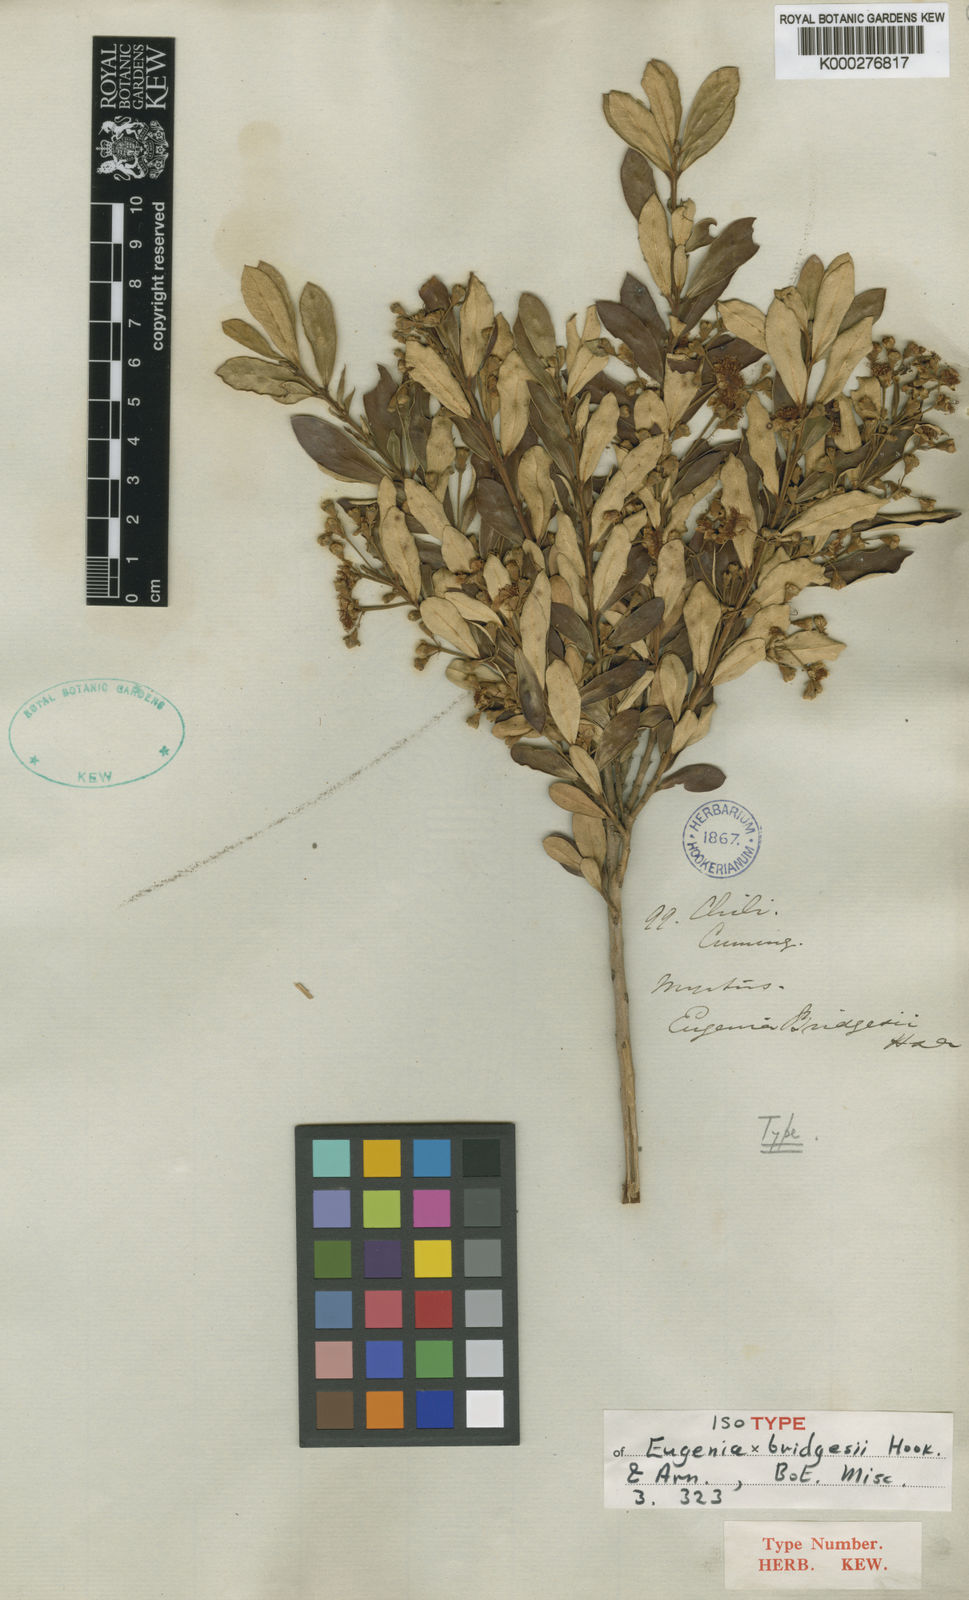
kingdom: Plantae
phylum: Tracheophyta
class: Magnoliopsida
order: Myrtales
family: Myrtaceae
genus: Myrceugenia
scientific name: Myrceugenia bridgesii
